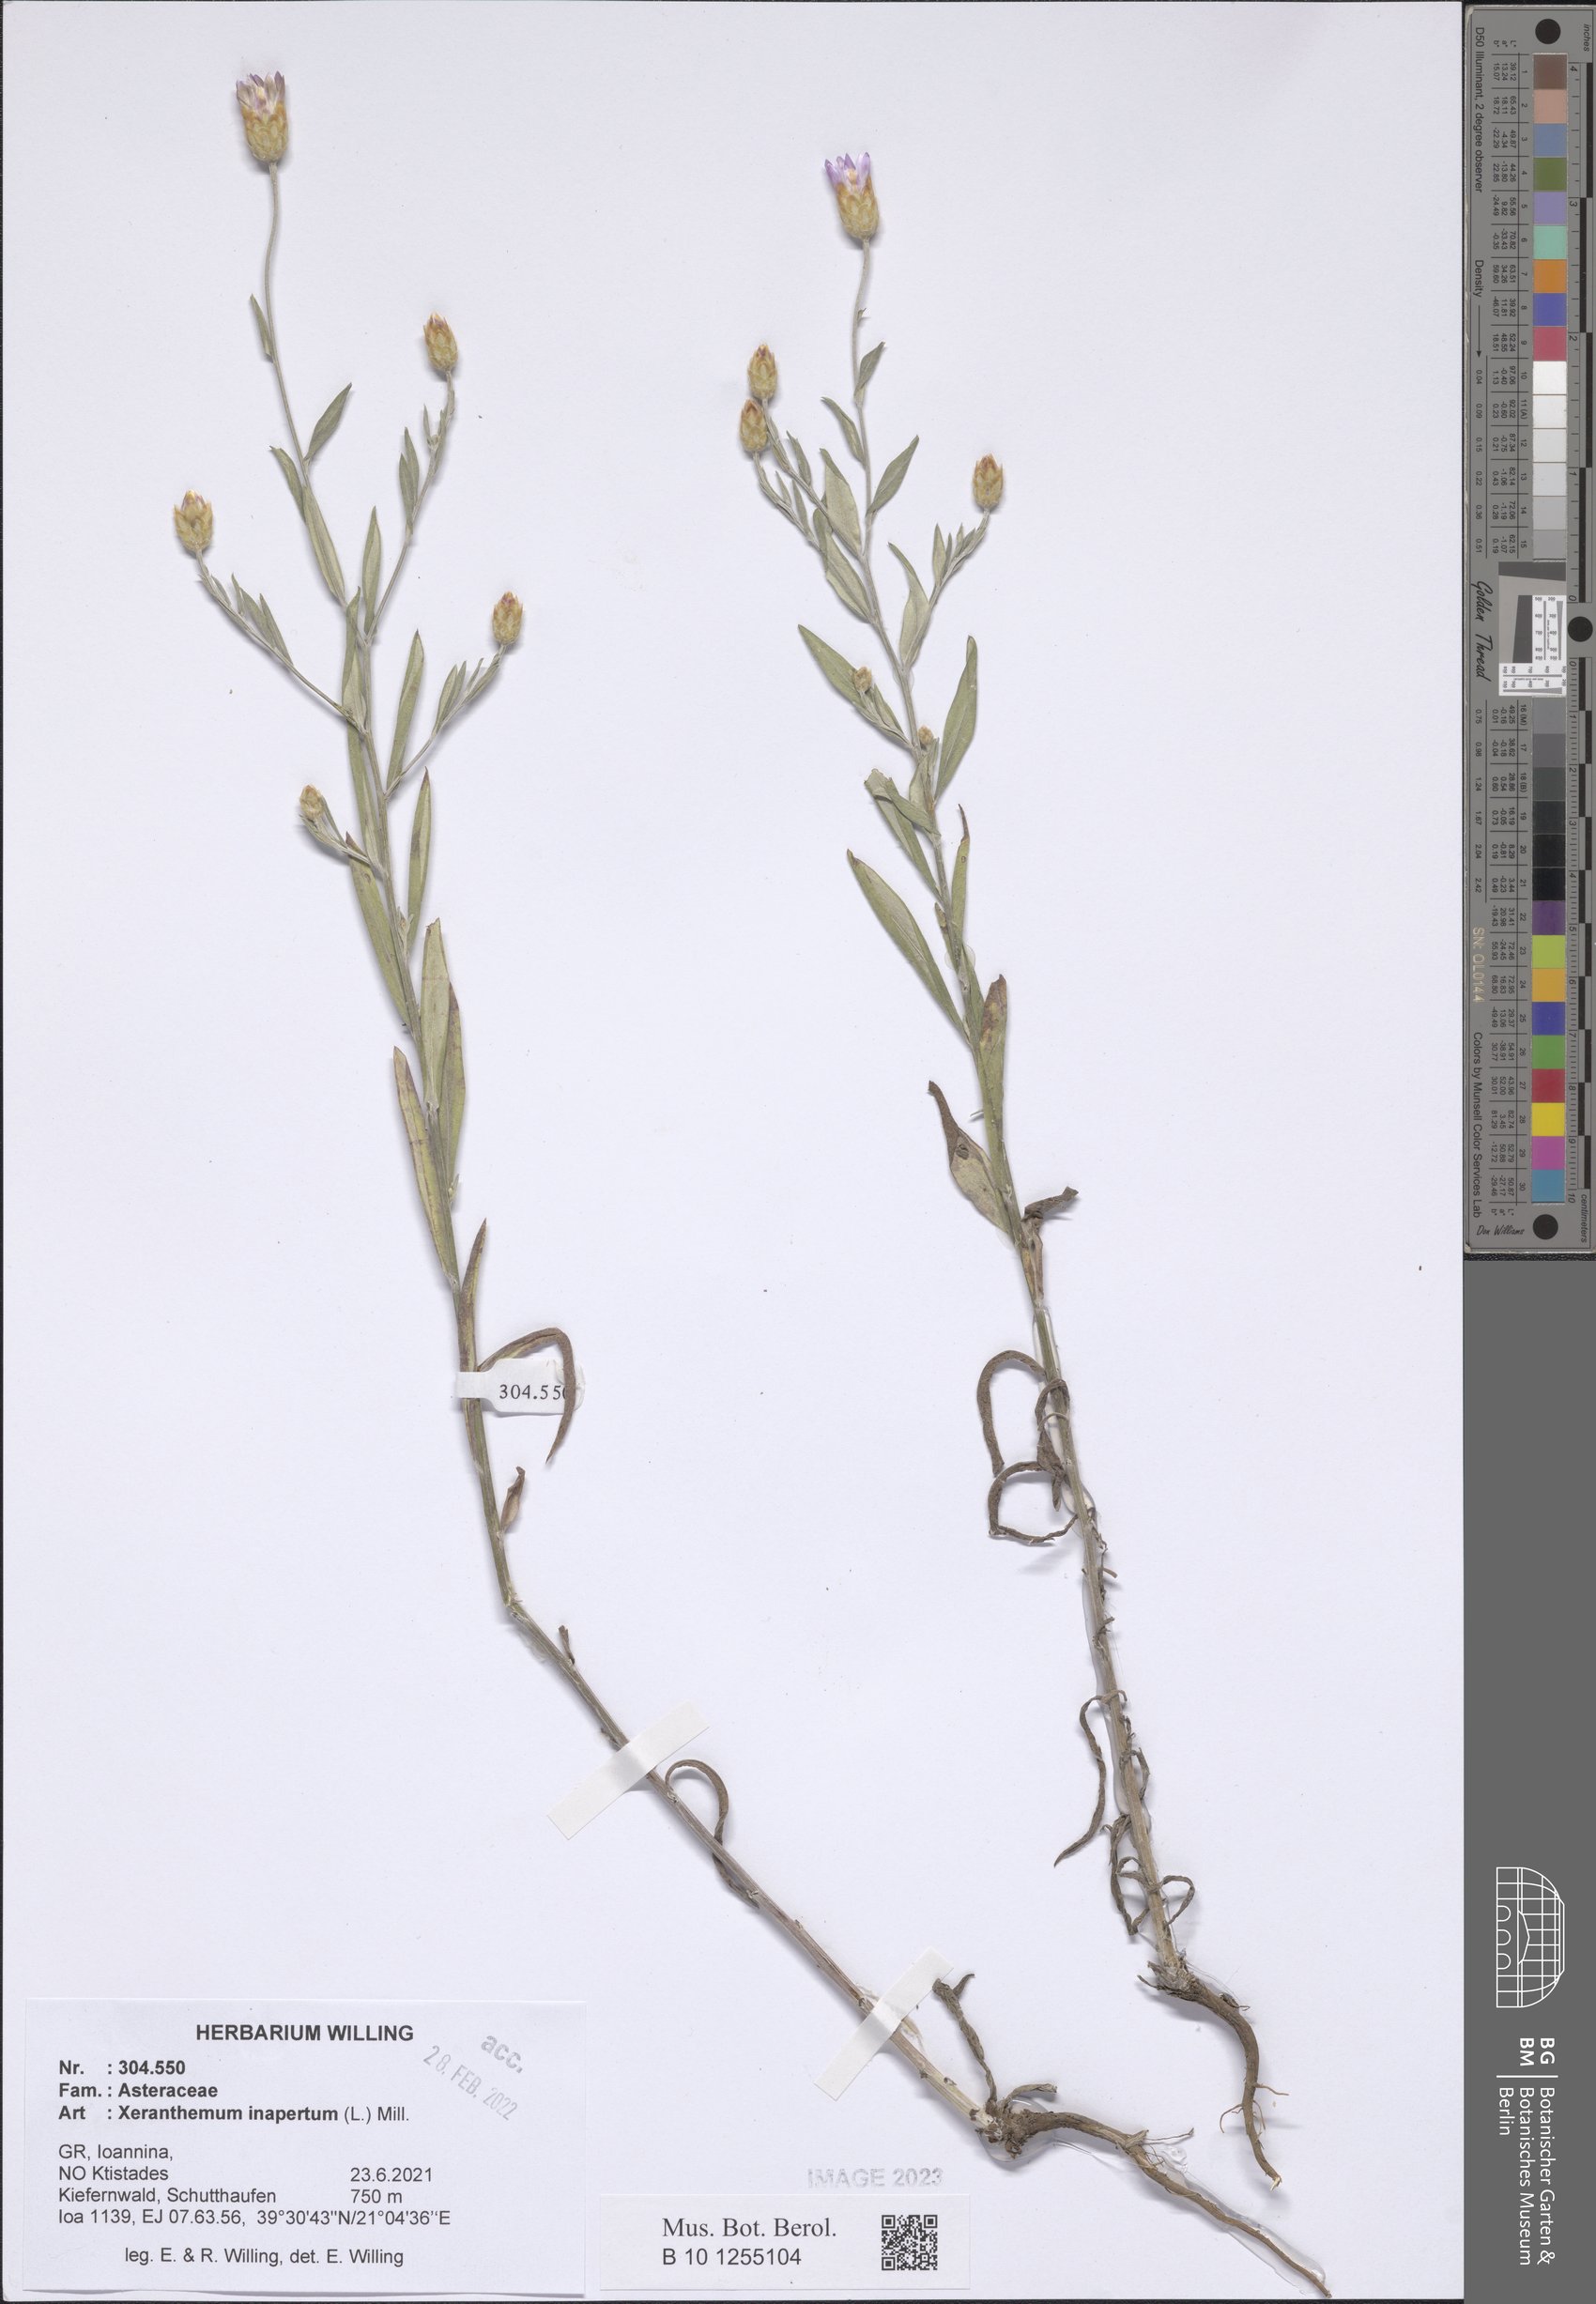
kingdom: Plantae
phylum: Tracheophyta
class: Magnoliopsida
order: Asterales
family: Asteraceae
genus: Xeranthemum
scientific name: Xeranthemum inapertum
